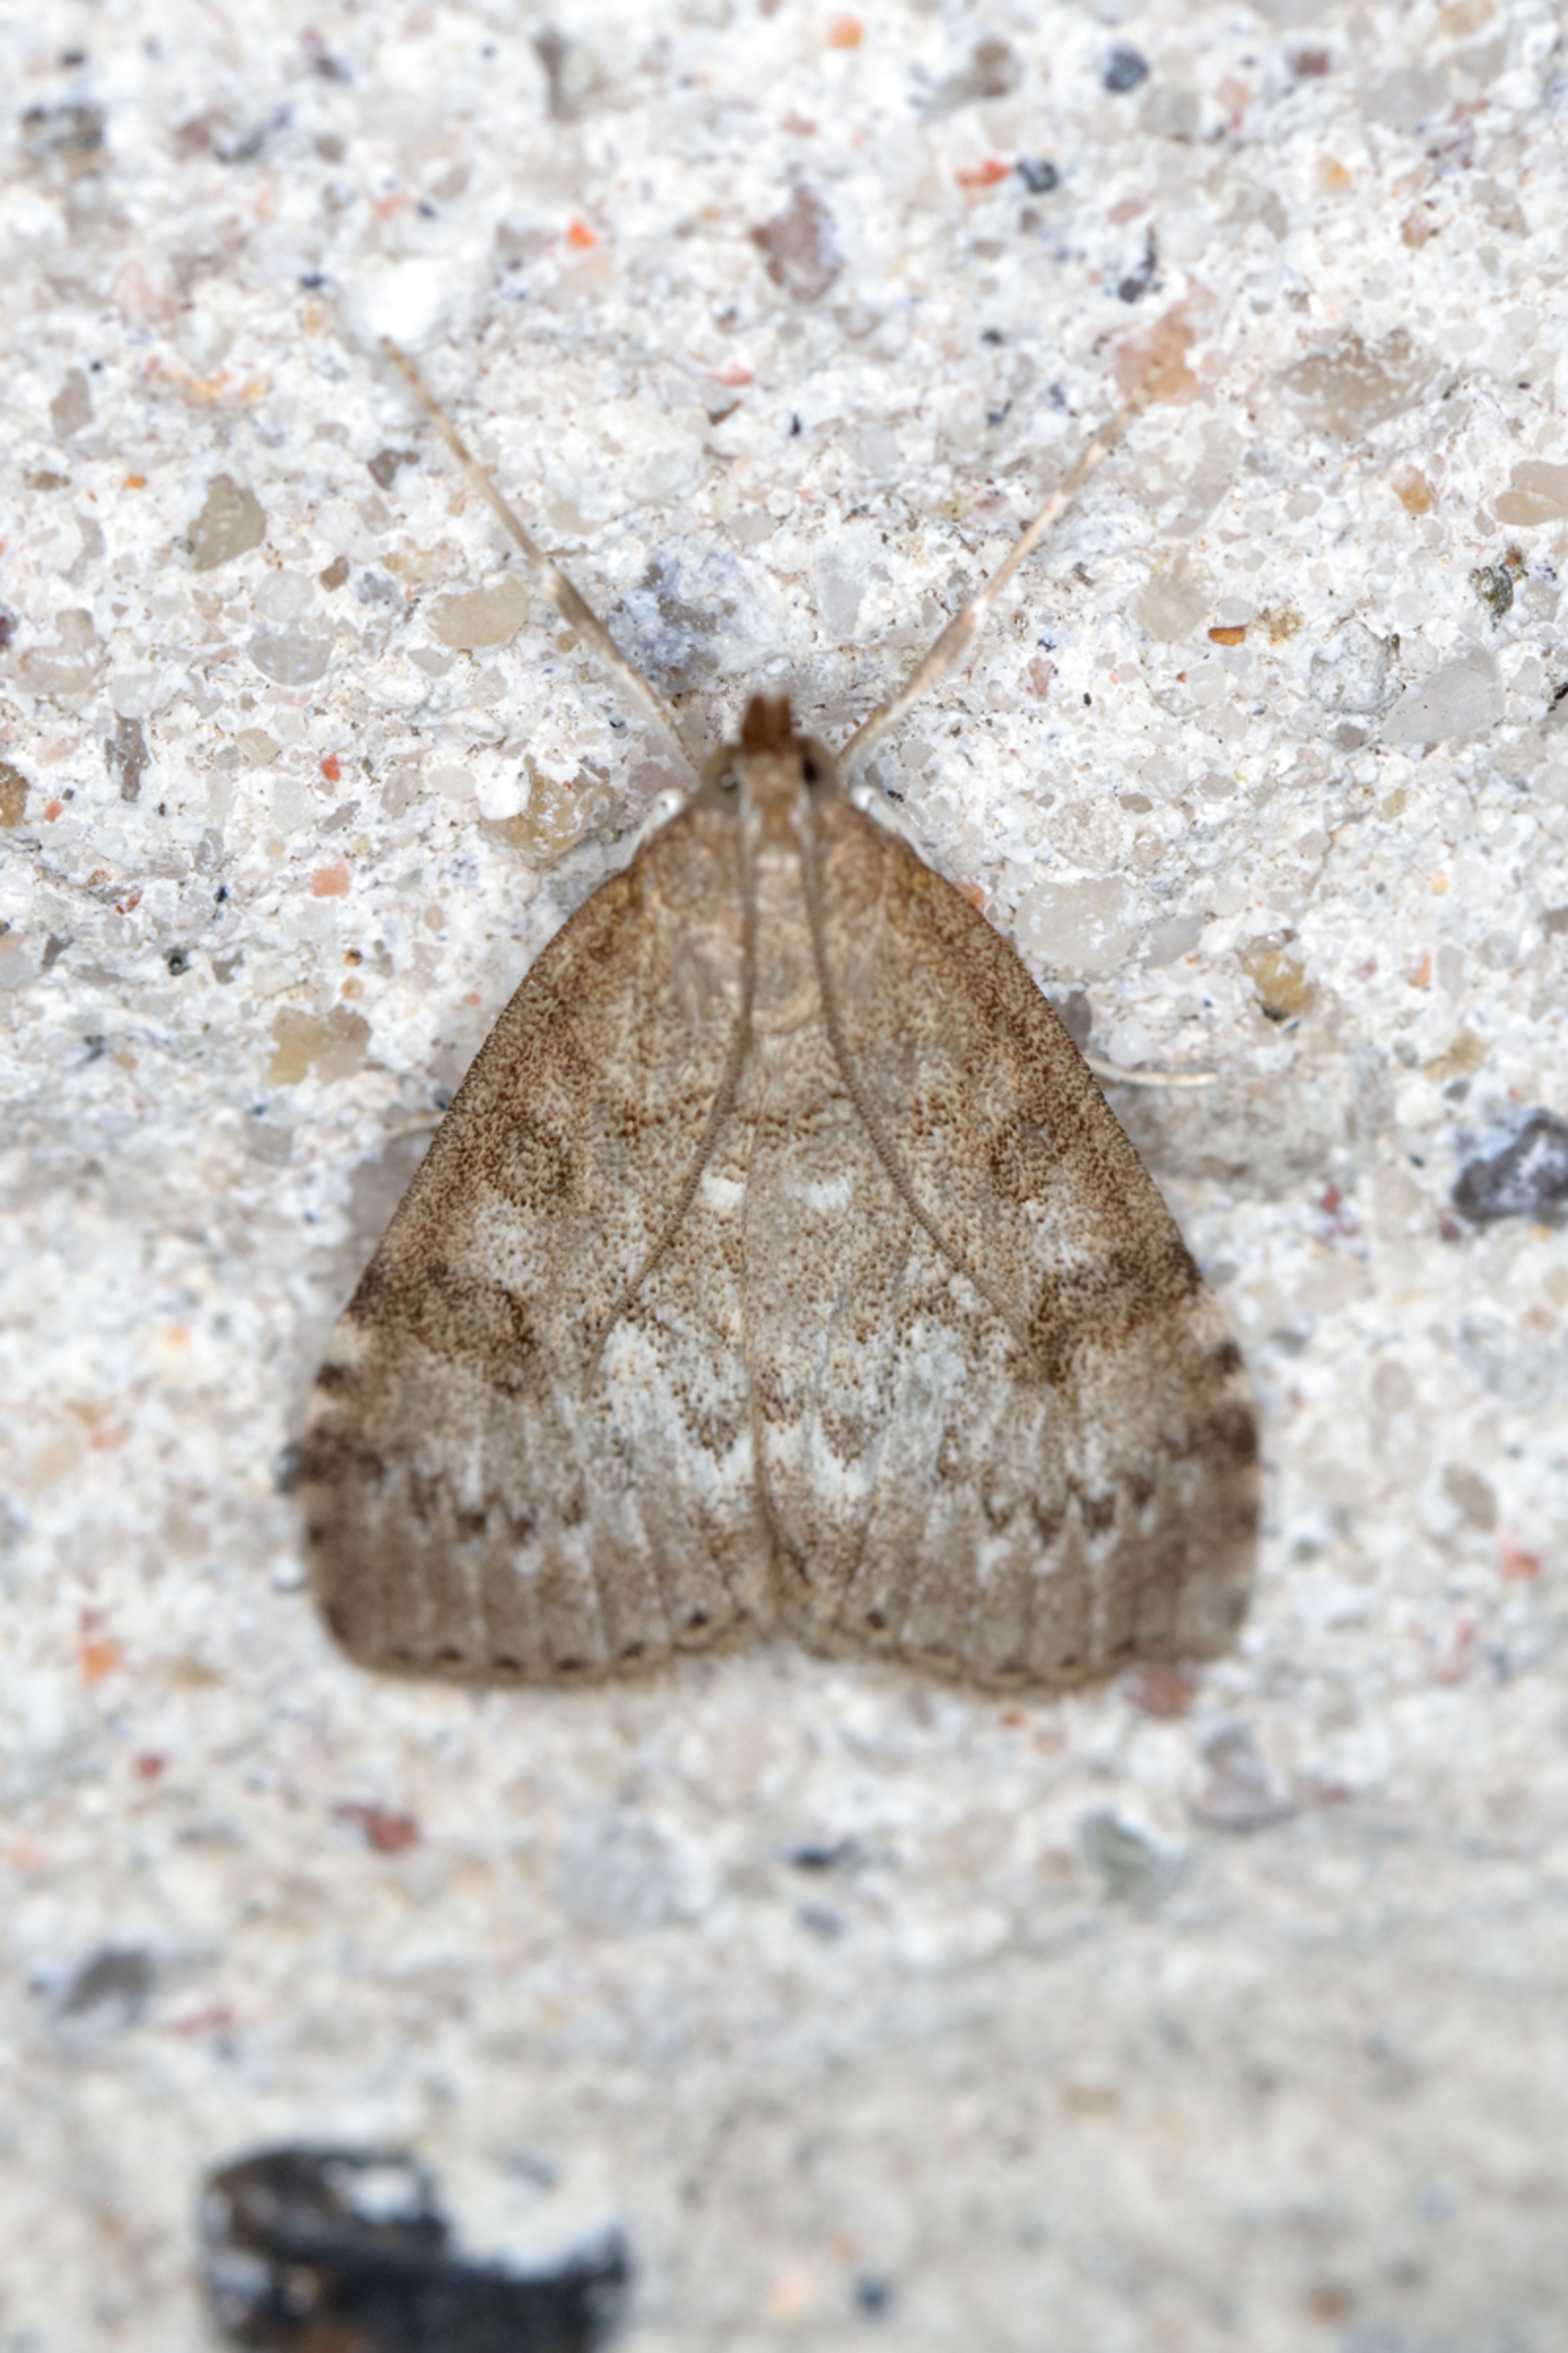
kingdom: Animalia
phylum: Arthropoda
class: Insecta
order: Lepidoptera
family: Crambidae
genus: Udea
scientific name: Udea prunalis
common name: Slåenhalvmøl
